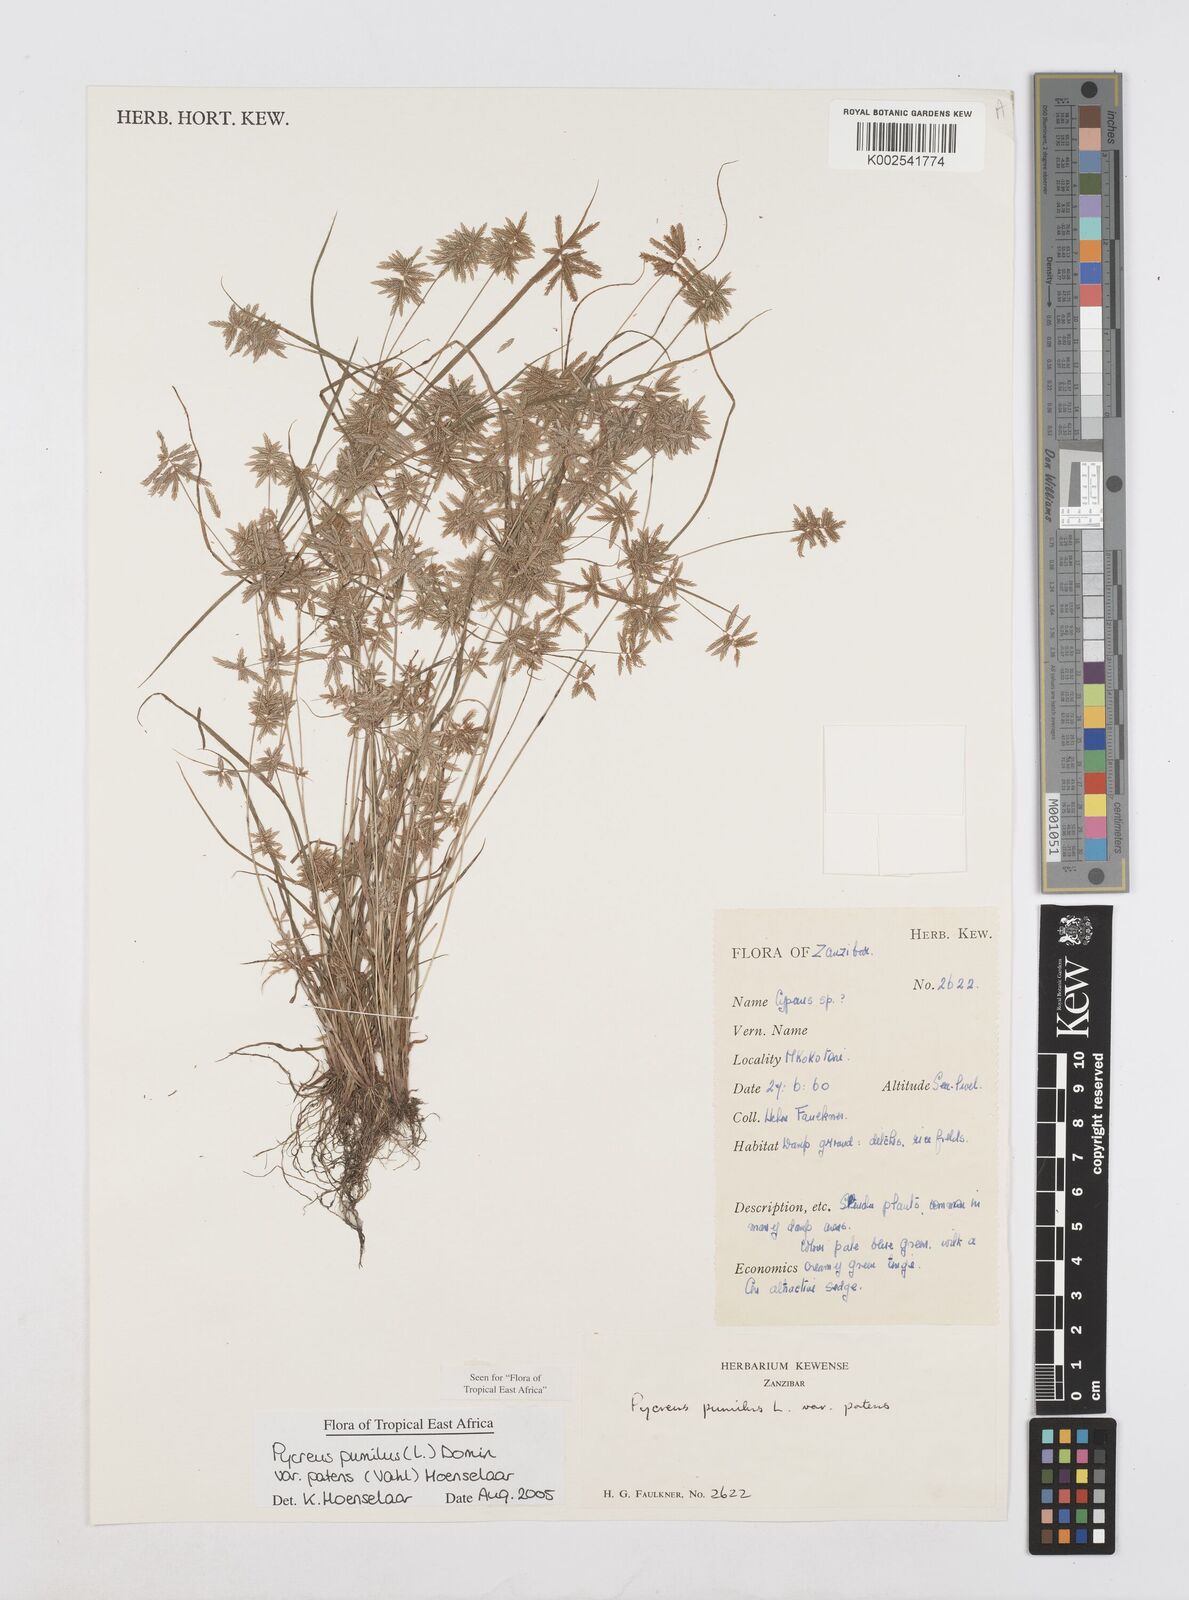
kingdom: Plantae
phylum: Tracheophyta
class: Liliopsida
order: Poales
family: Cyperaceae
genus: Cyperus
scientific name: Cyperus pumilus
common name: Low flatsedge
